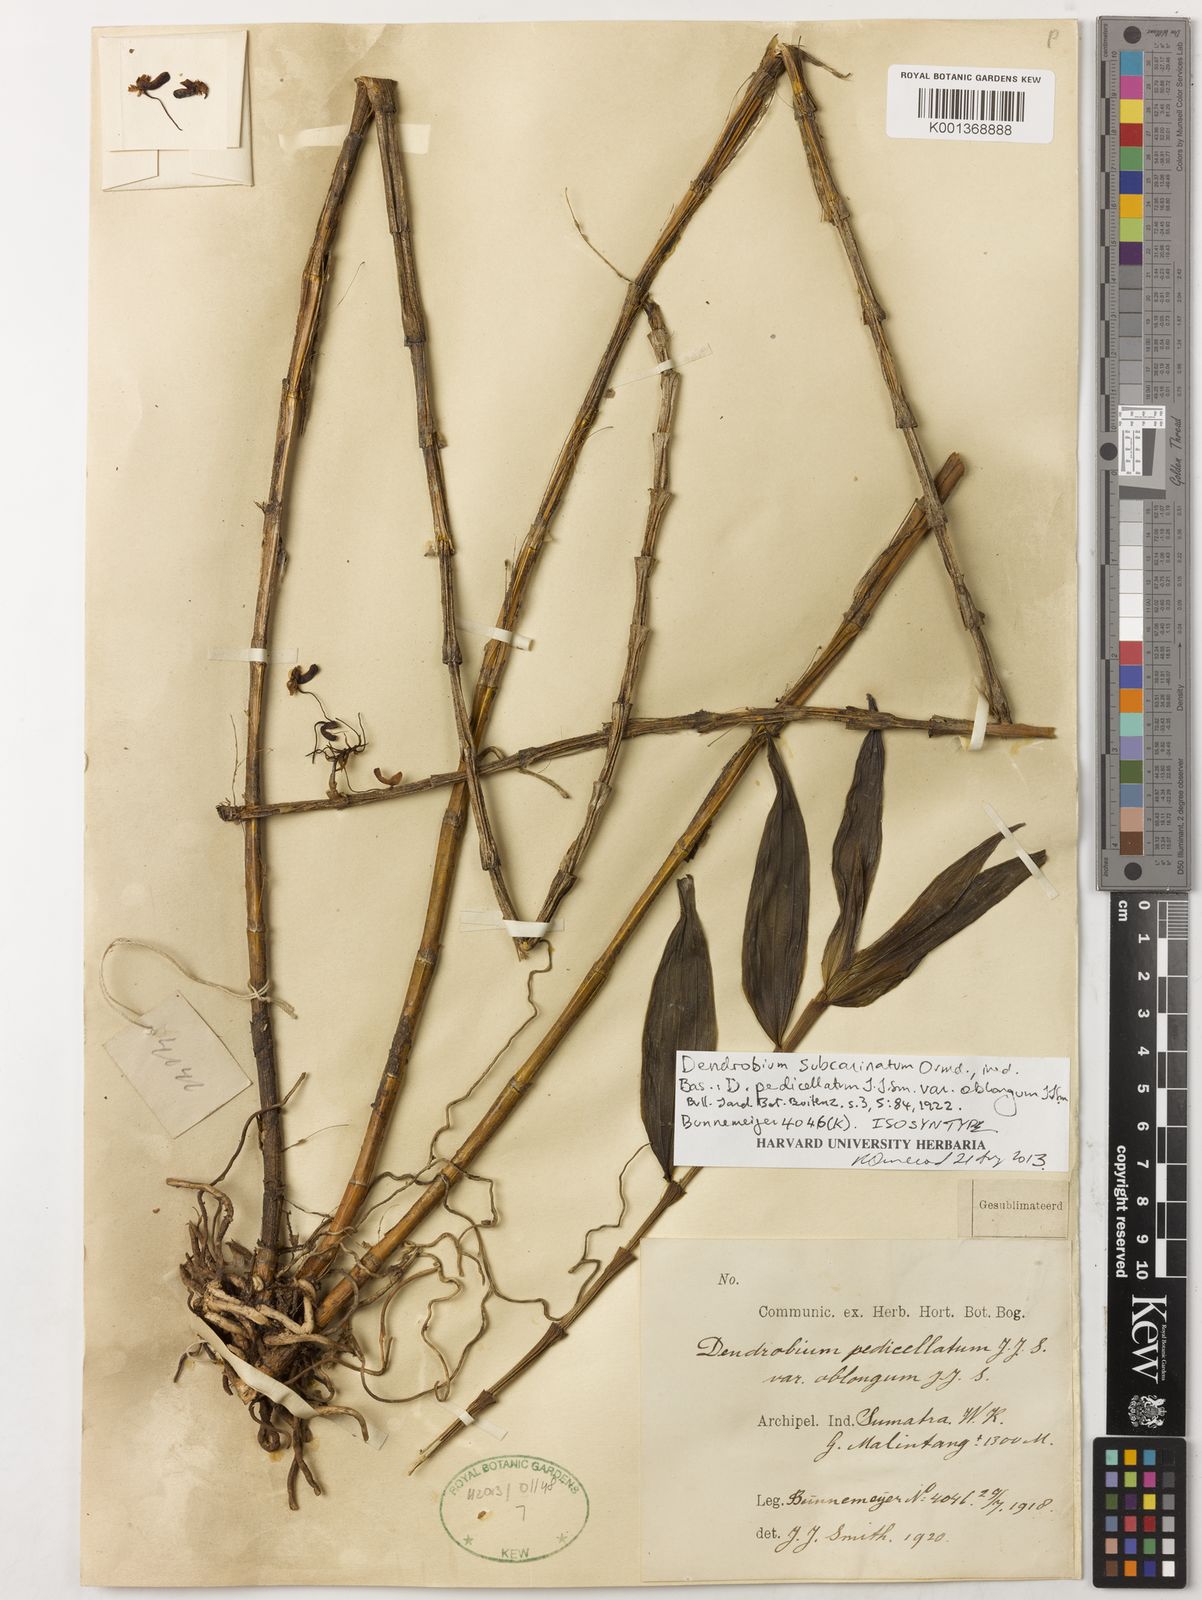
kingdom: Plantae
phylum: Tracheophyta
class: Liliopsida
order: Asparagales
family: Orchidaceae
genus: Dendrobium
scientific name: Dendrobium subcarinatum
